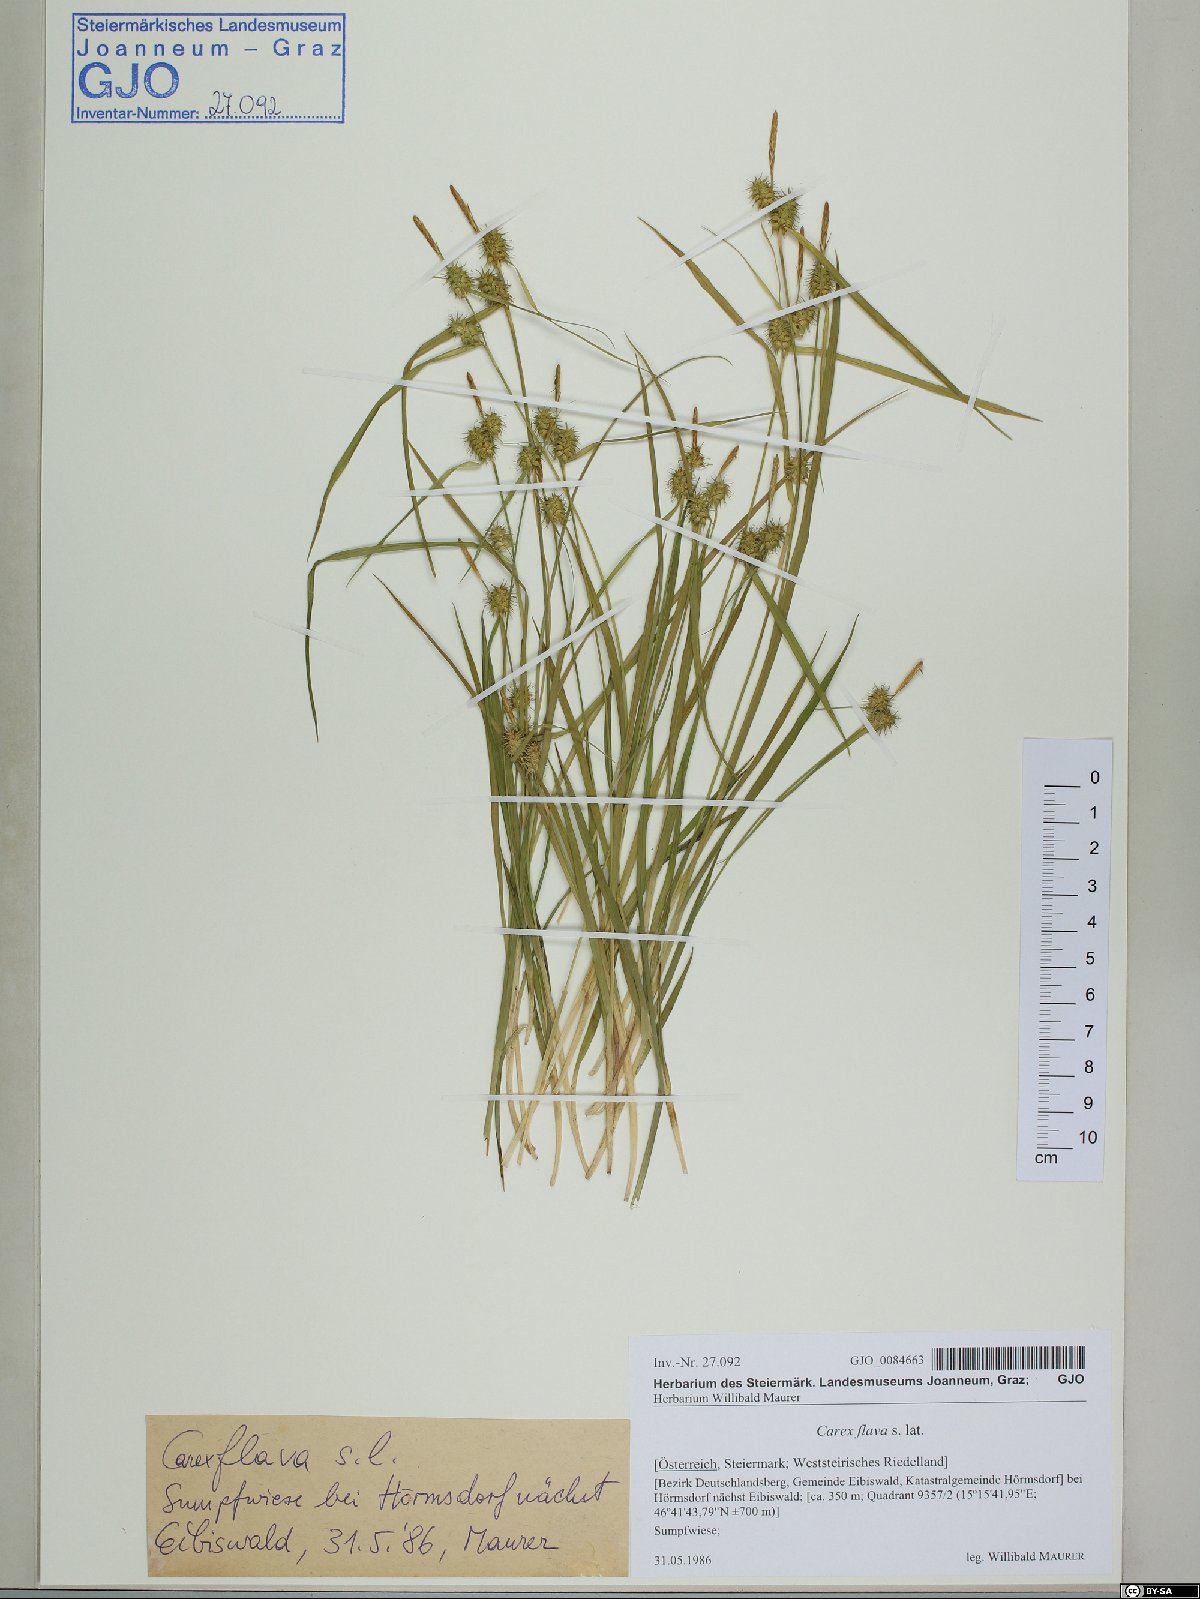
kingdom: Plantae
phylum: Tracheophyta
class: Liliopsida
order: Poales
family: Cyperaceae
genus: Carex
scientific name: Carex flava
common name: Large yellow-sedge
